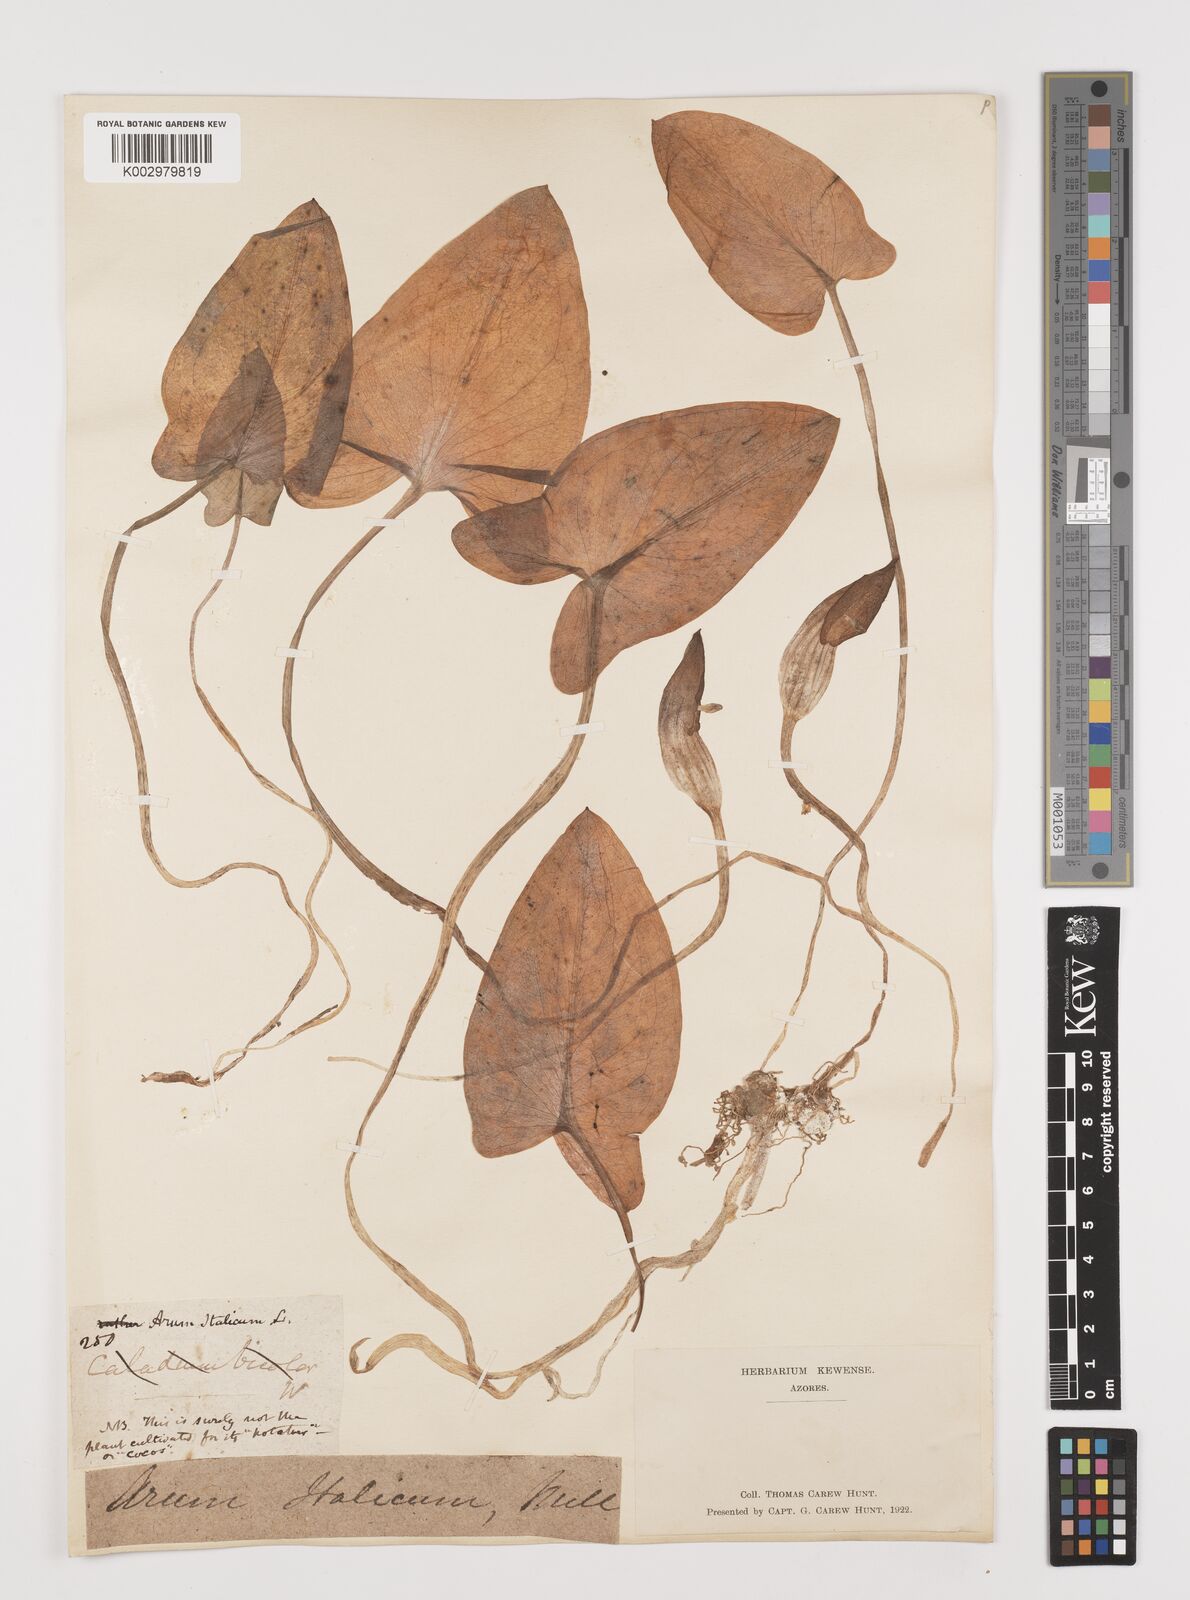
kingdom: Plantae
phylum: Tracheophyta
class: Liliopsida
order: Alismatales
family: Araceae
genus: Arisarum
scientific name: Arisarum vulgare
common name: Common arisarum
